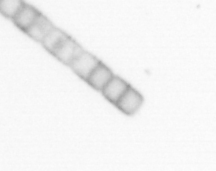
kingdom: Chromista
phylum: Ochrophyta
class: Bacillariophyceae
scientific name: Bacillariophyceae
